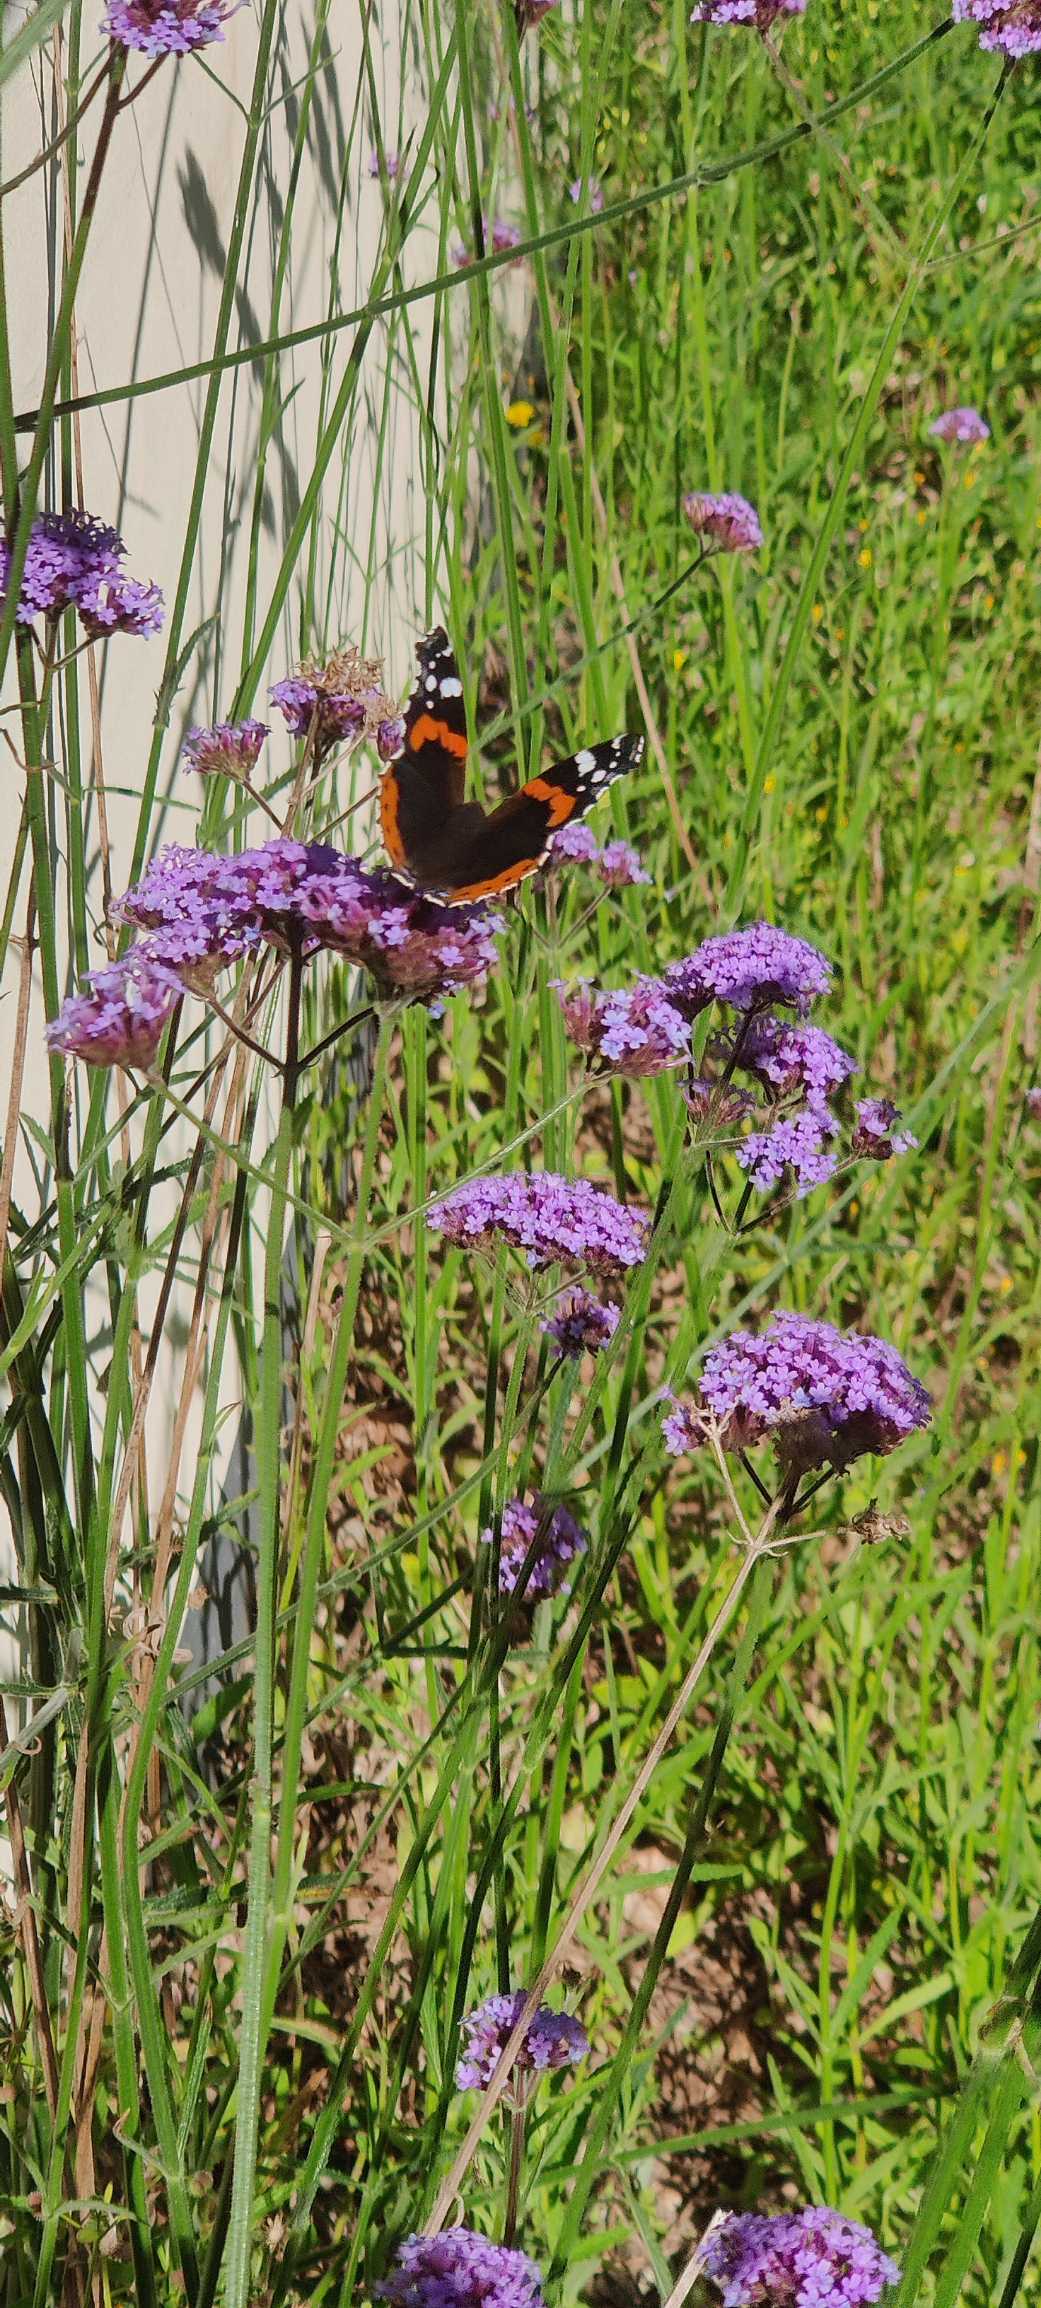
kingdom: Animalia
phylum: Arthropoda
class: Insecta
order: Lepidoptera
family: Nymphalidae
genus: Vanessa
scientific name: Vanessa atalanta
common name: Admiral
